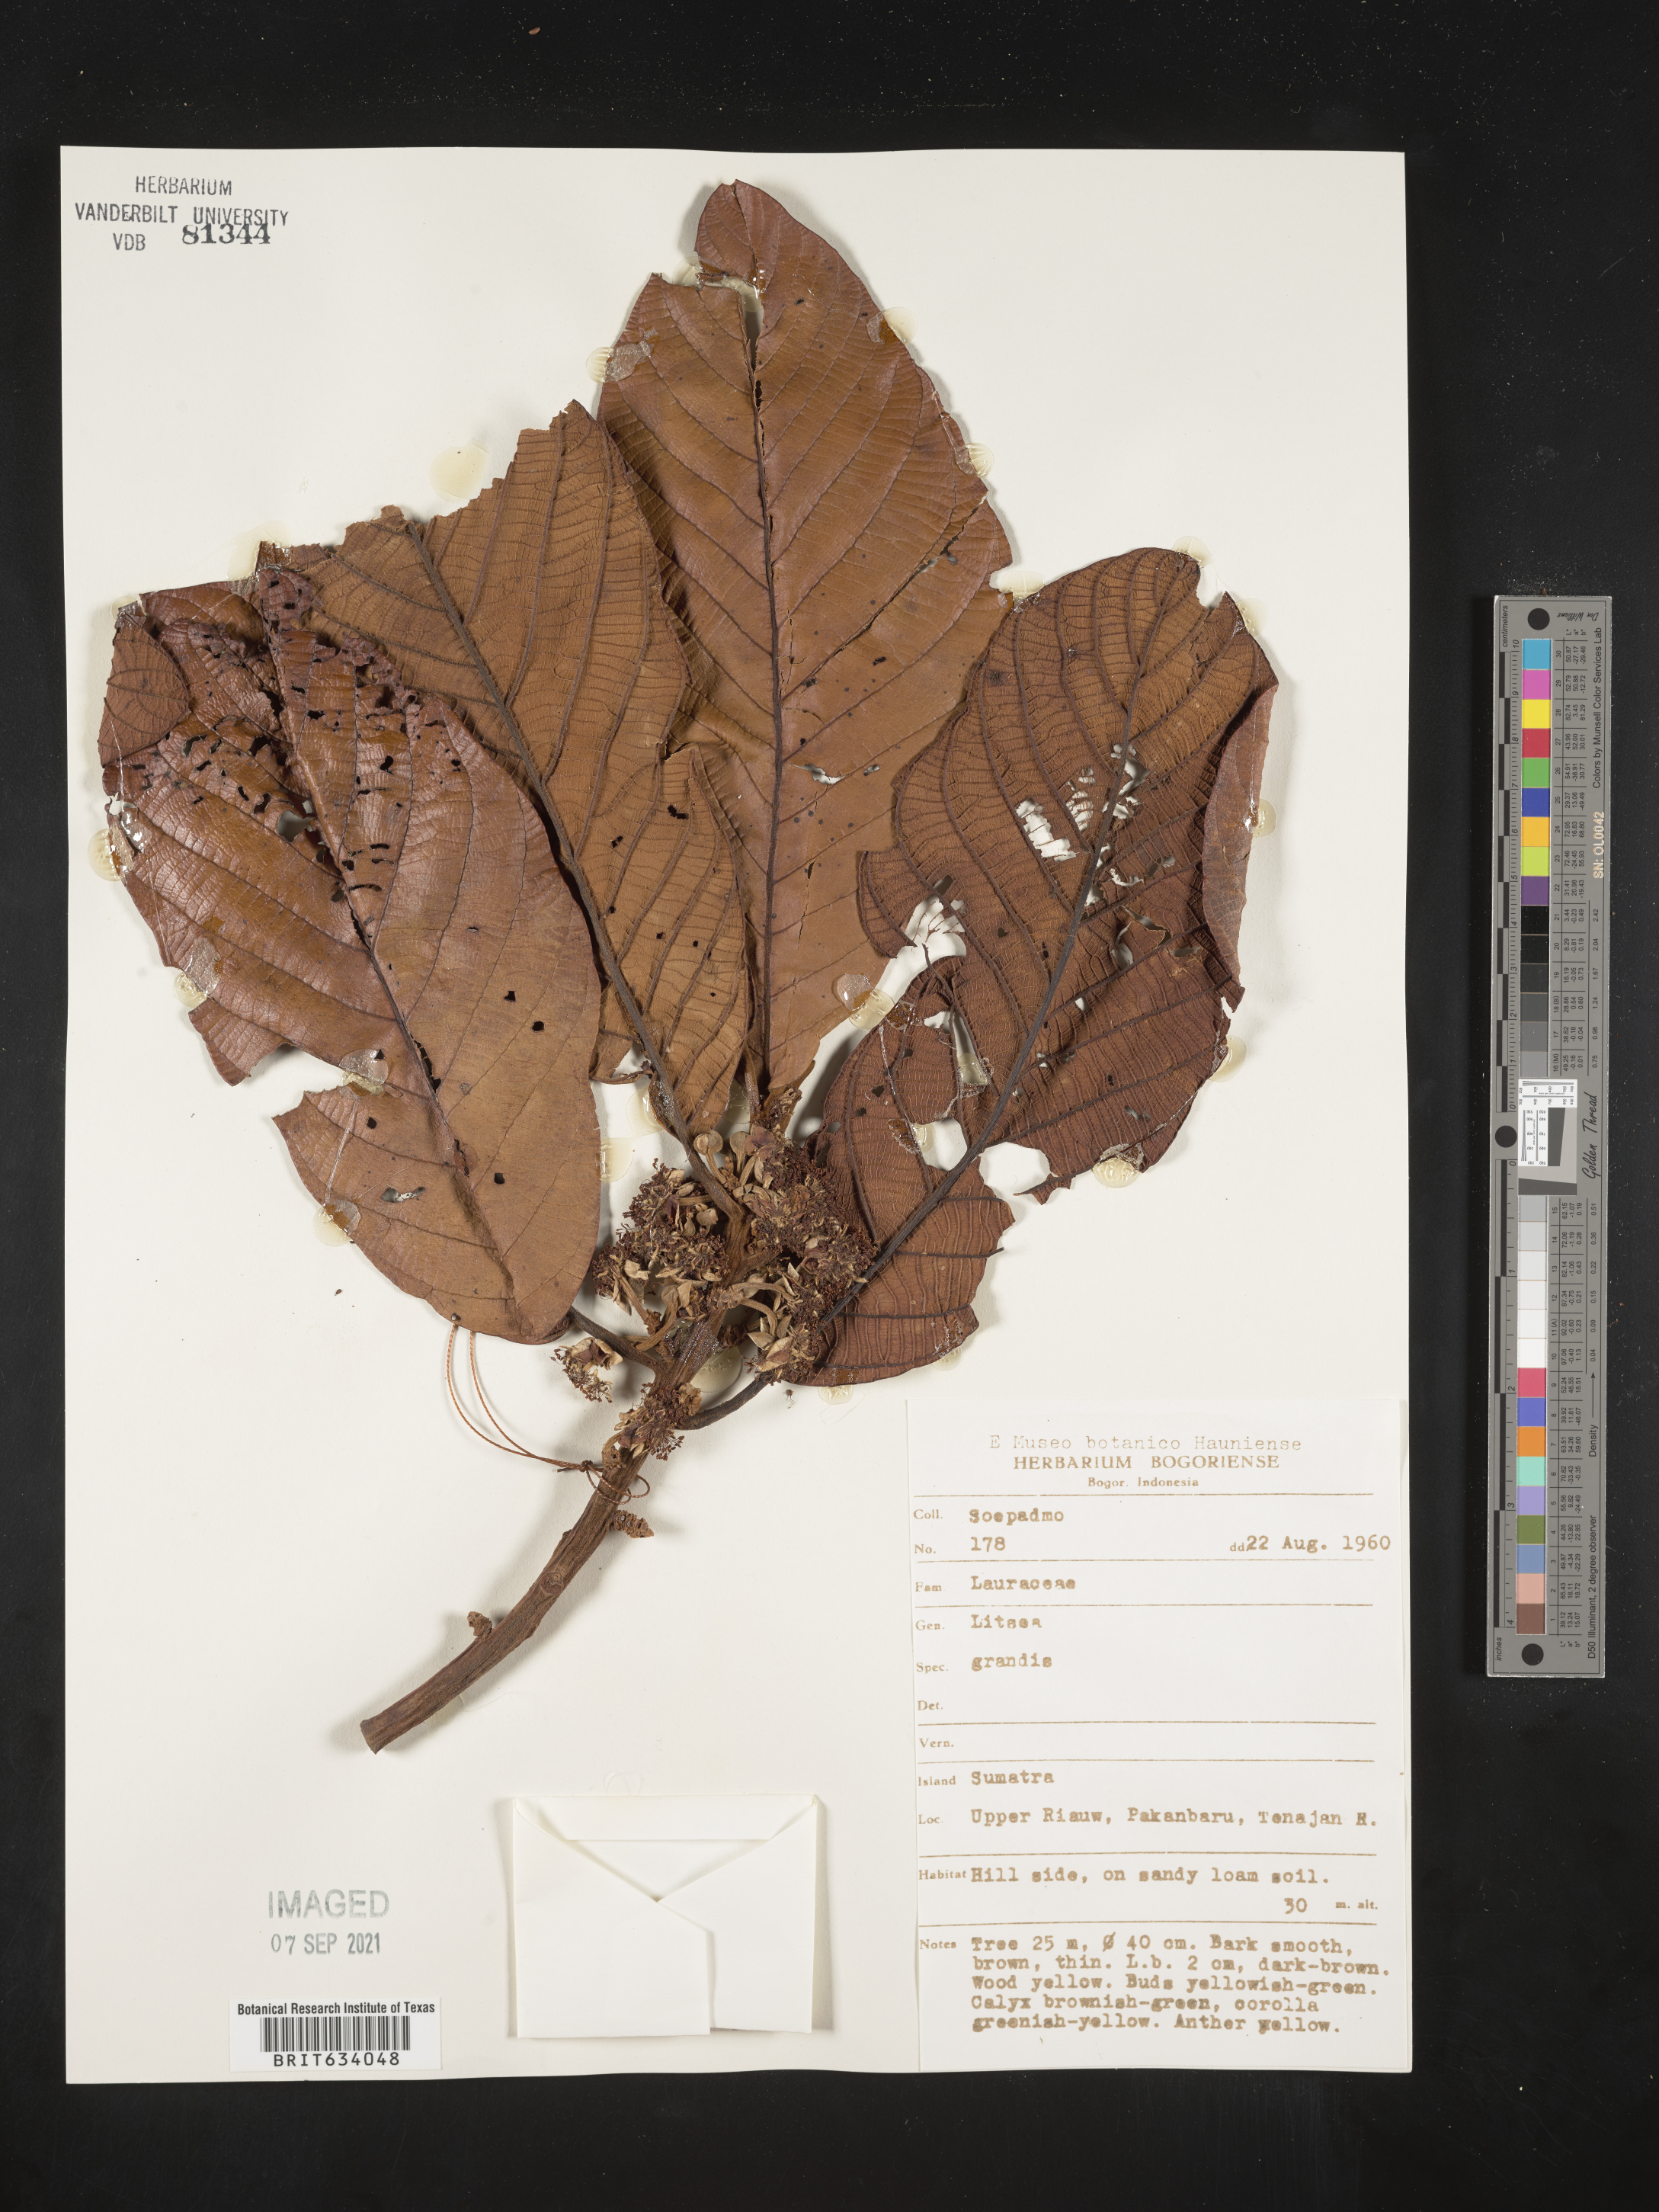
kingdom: Plantae
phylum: Tracheophyta
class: Magnoliopsida
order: Laurales
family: Lauraceae
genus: Litsea
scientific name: Litsea
